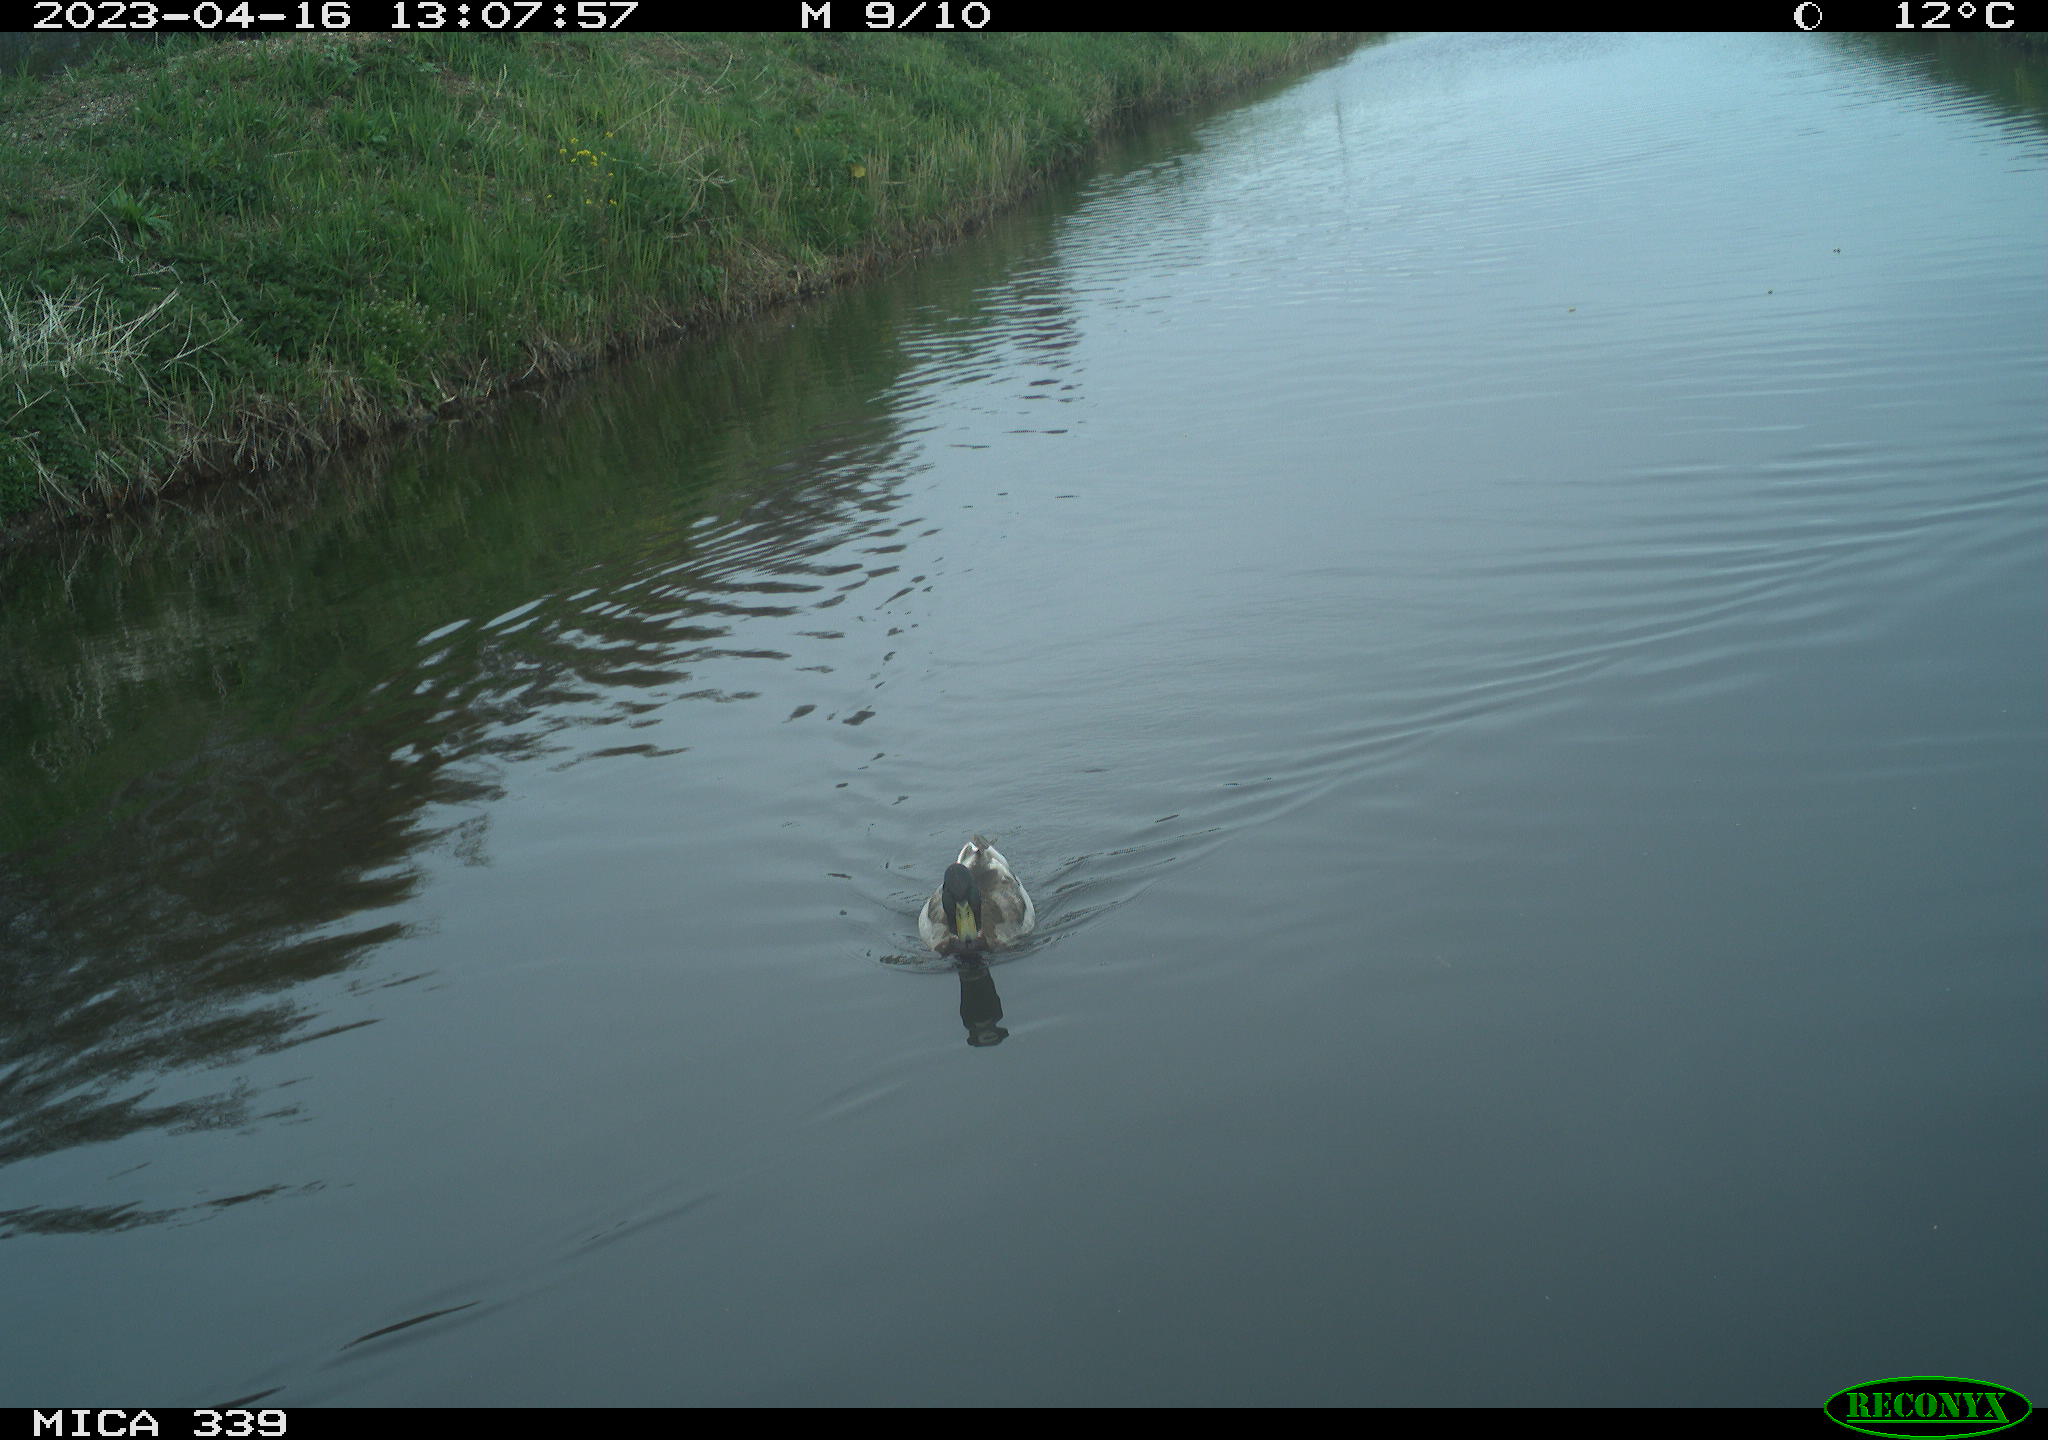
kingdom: Animalia
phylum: Chordata
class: Aves
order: Anseriformes
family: Anatidae
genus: Anas
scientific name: Anas
